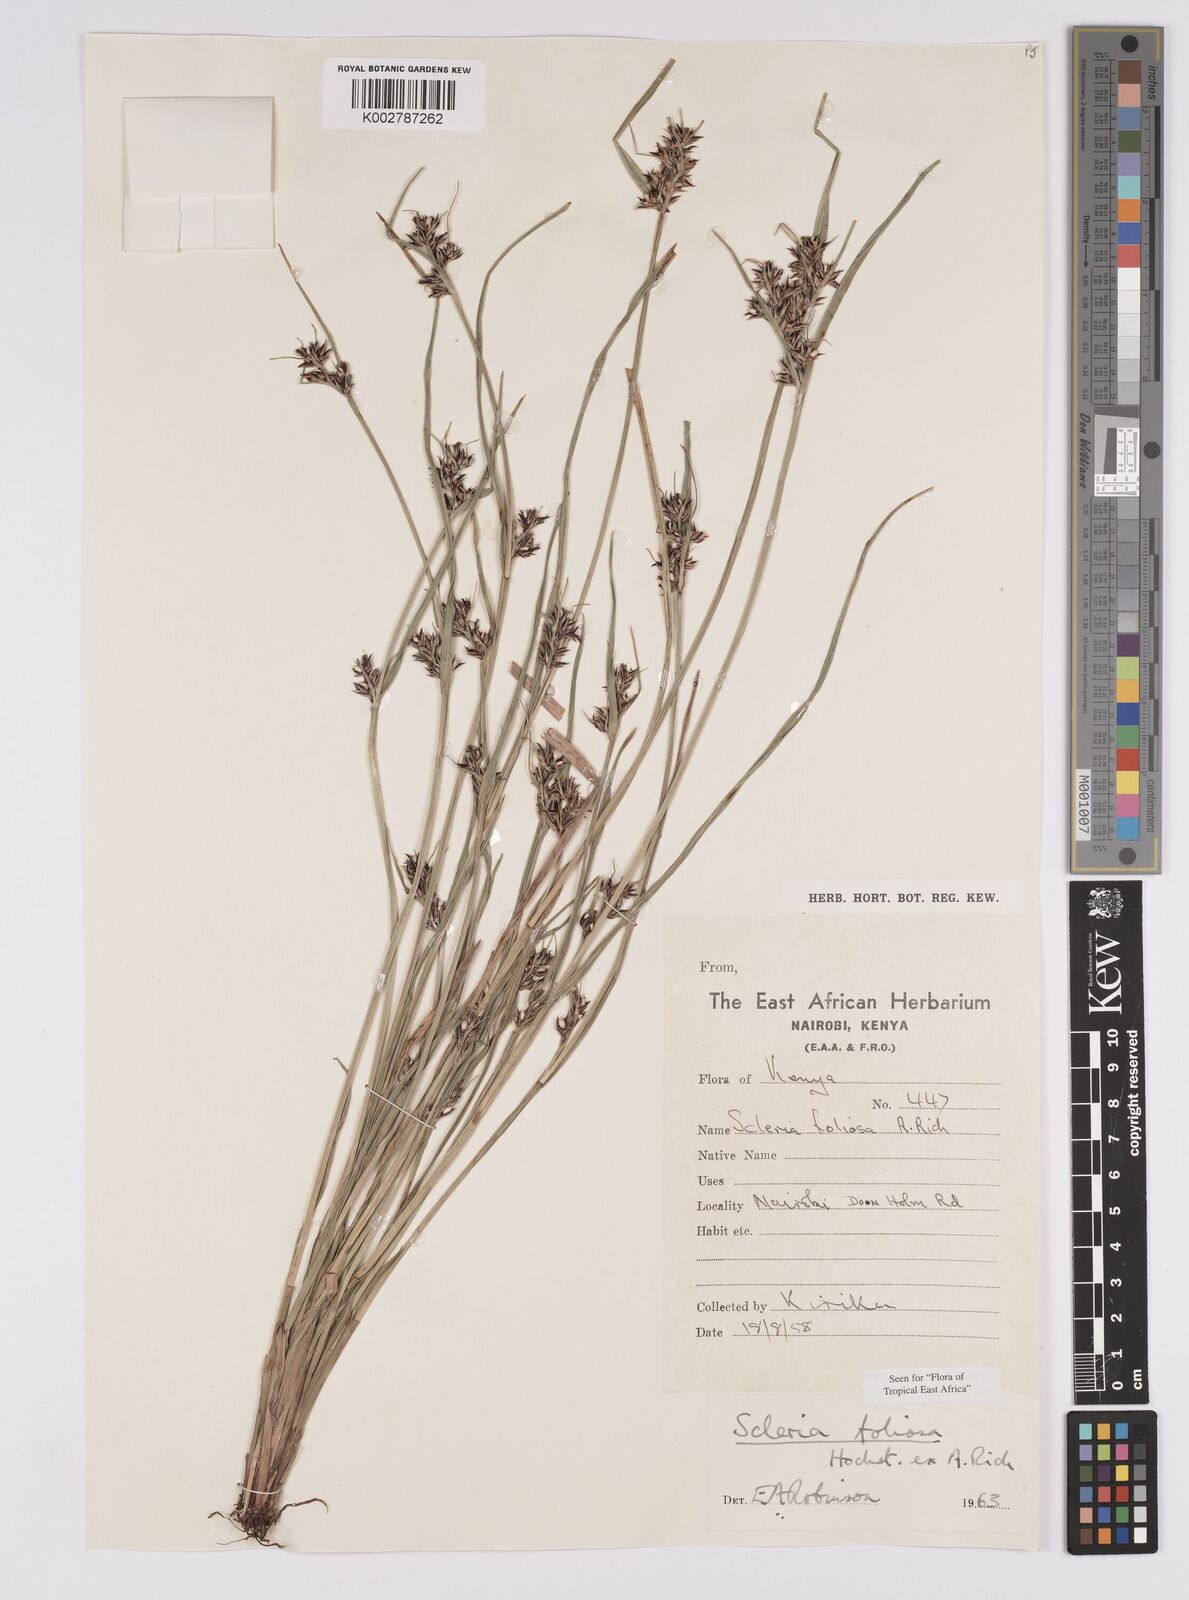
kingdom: Plantae
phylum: Tracheophyta
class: Liliopsida
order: Poales
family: Cyperaceae
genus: Scleria
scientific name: Scleria foliosa
